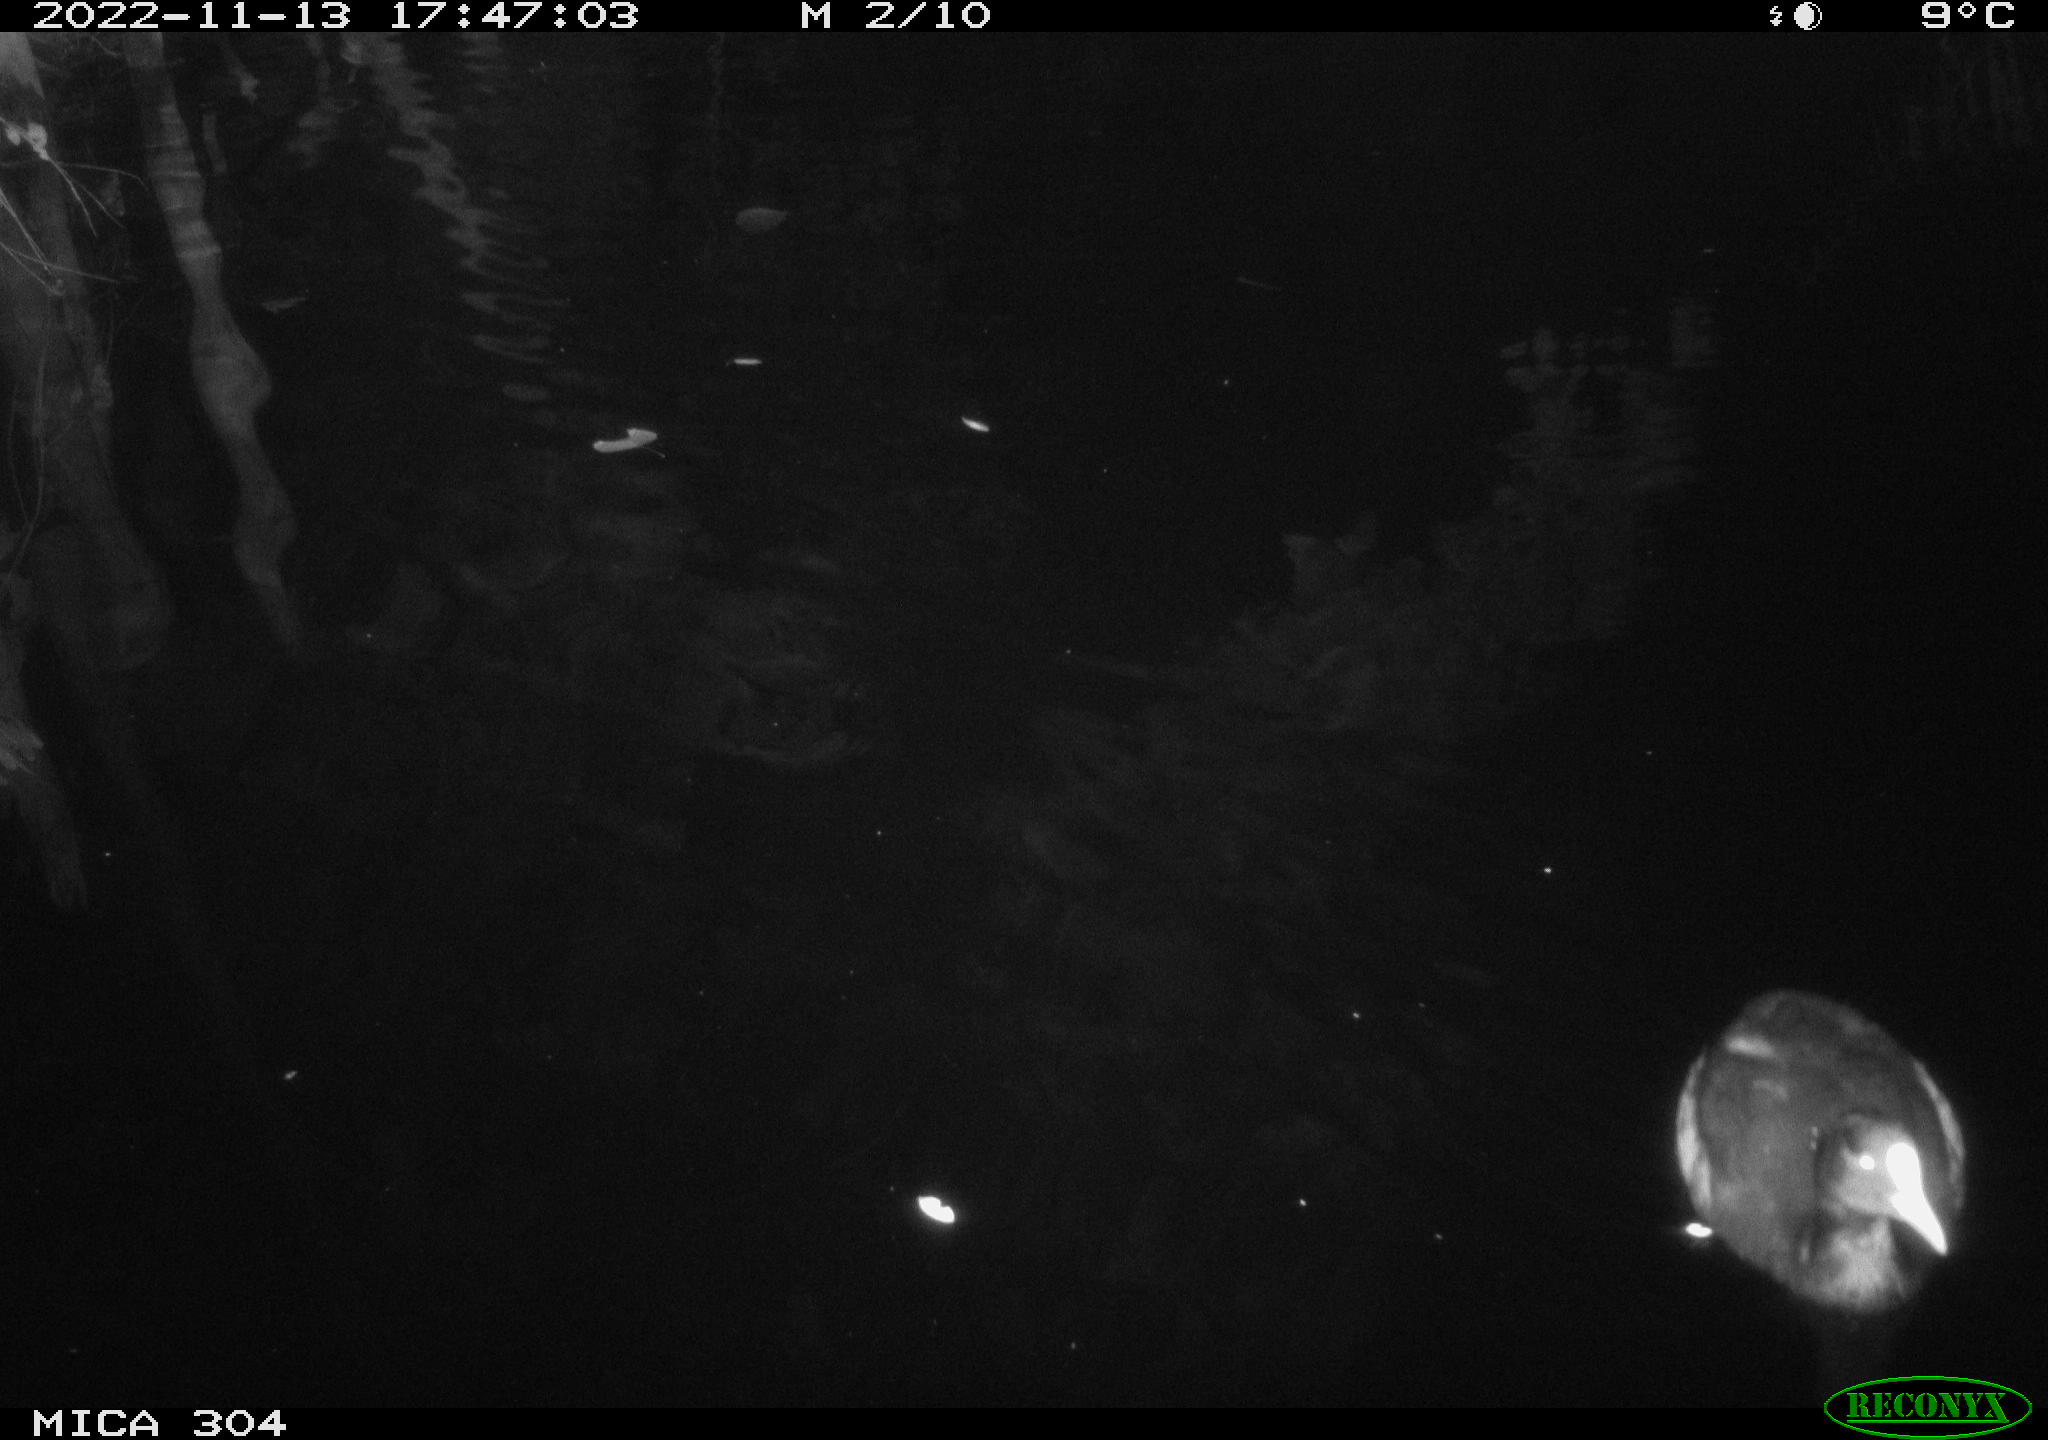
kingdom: Animalia
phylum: Chordata
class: Aves
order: Anseriformes
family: Anatidae
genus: Anas
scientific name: Anas
